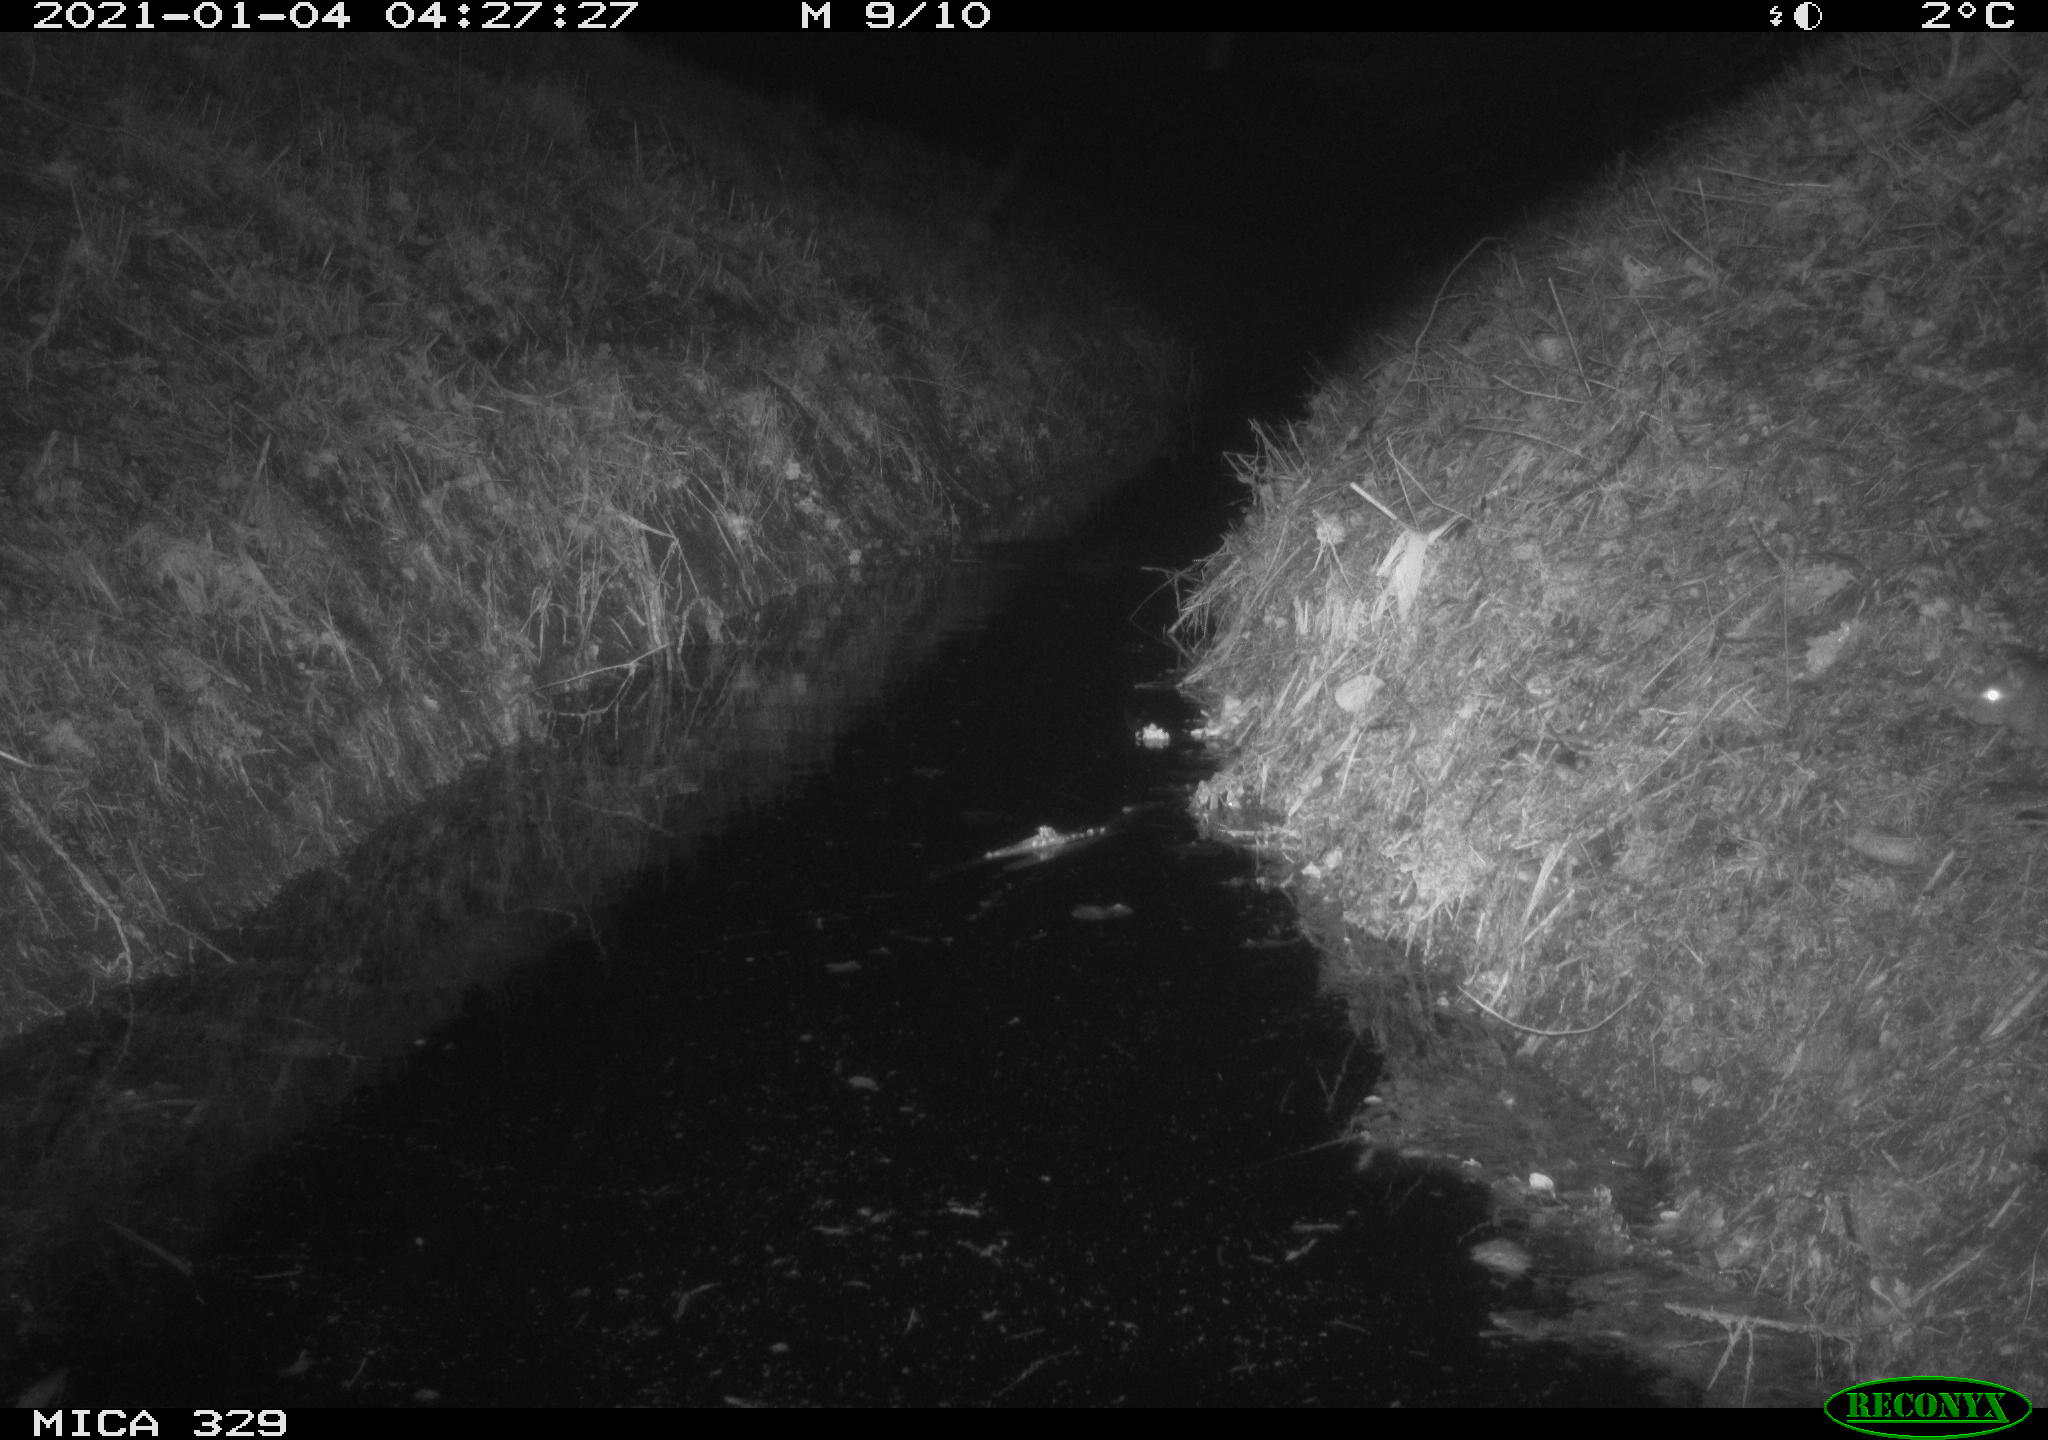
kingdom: Animalia
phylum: Chordata
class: Mammalia
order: Rodentia
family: Muridae
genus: Rattus
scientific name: Rattus norvegicus
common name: Brown rat
